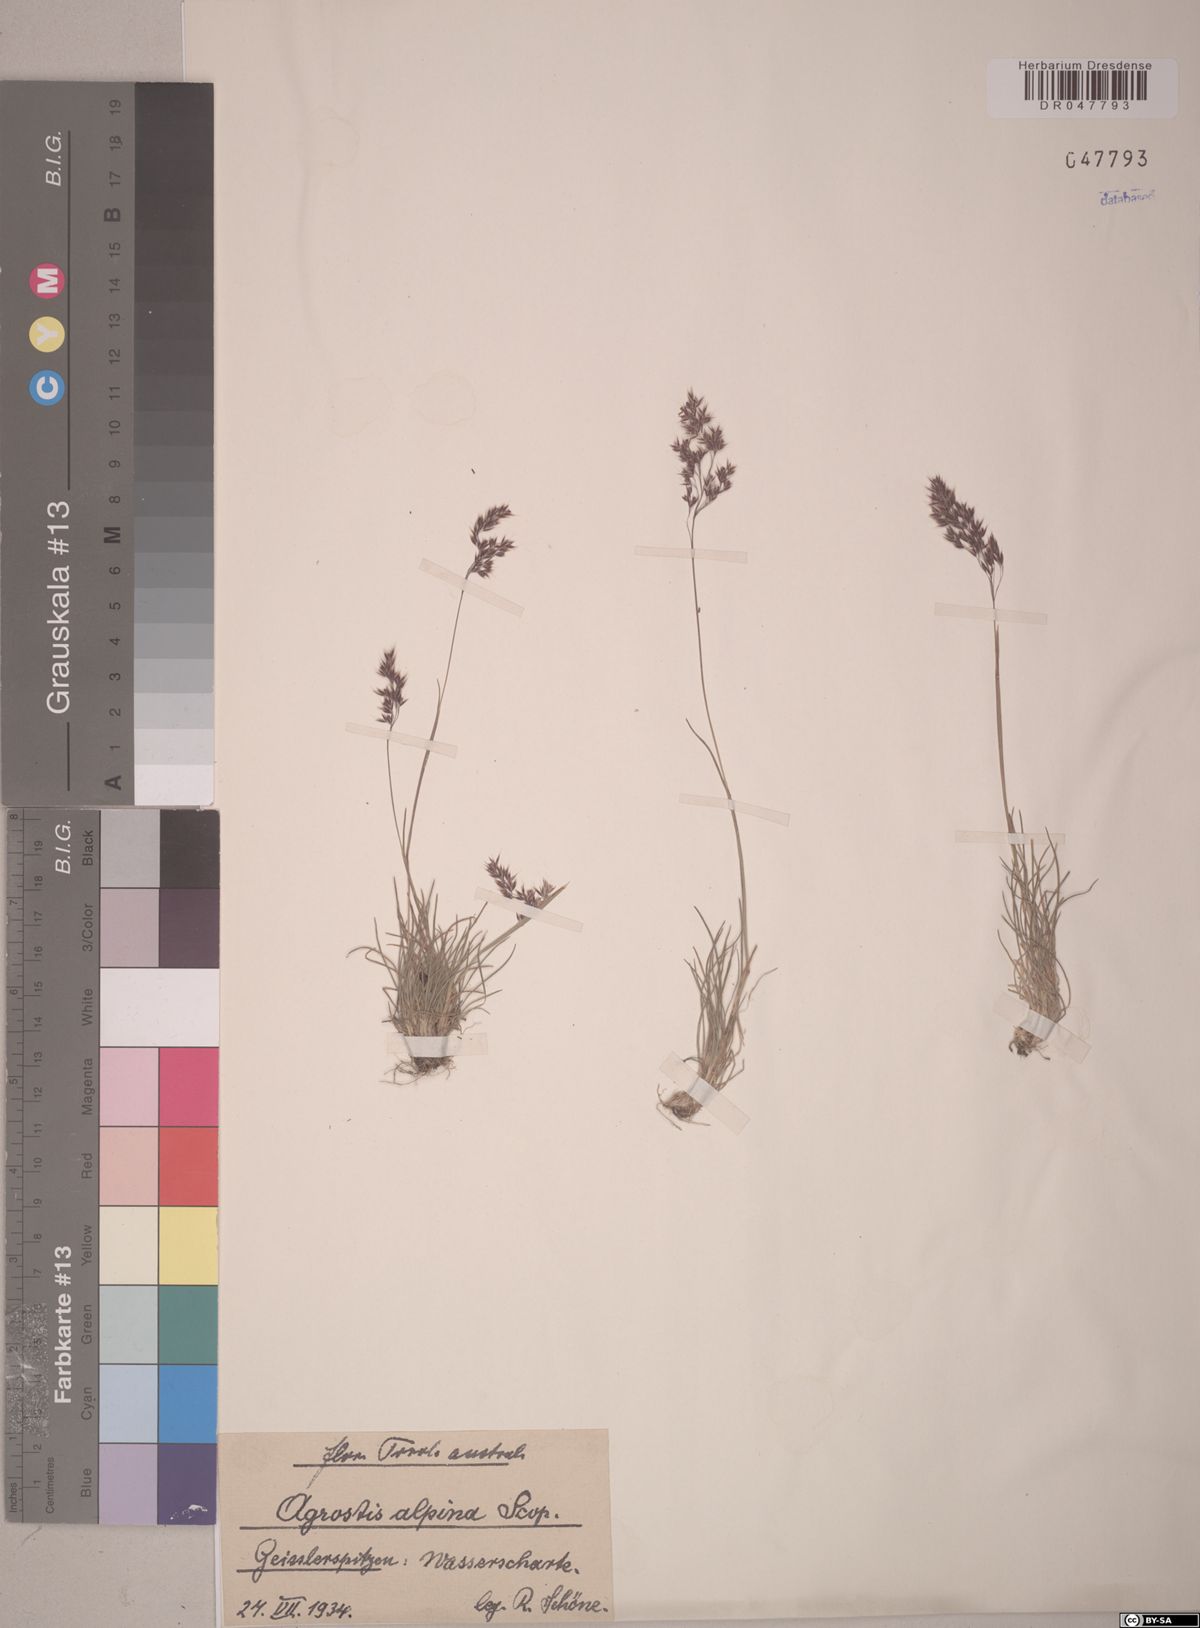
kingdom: Plantae
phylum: Tracheophyta
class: Liliopsida
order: Poales
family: Poaceae
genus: Alpagrostis
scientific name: Alpagrostis alpina
